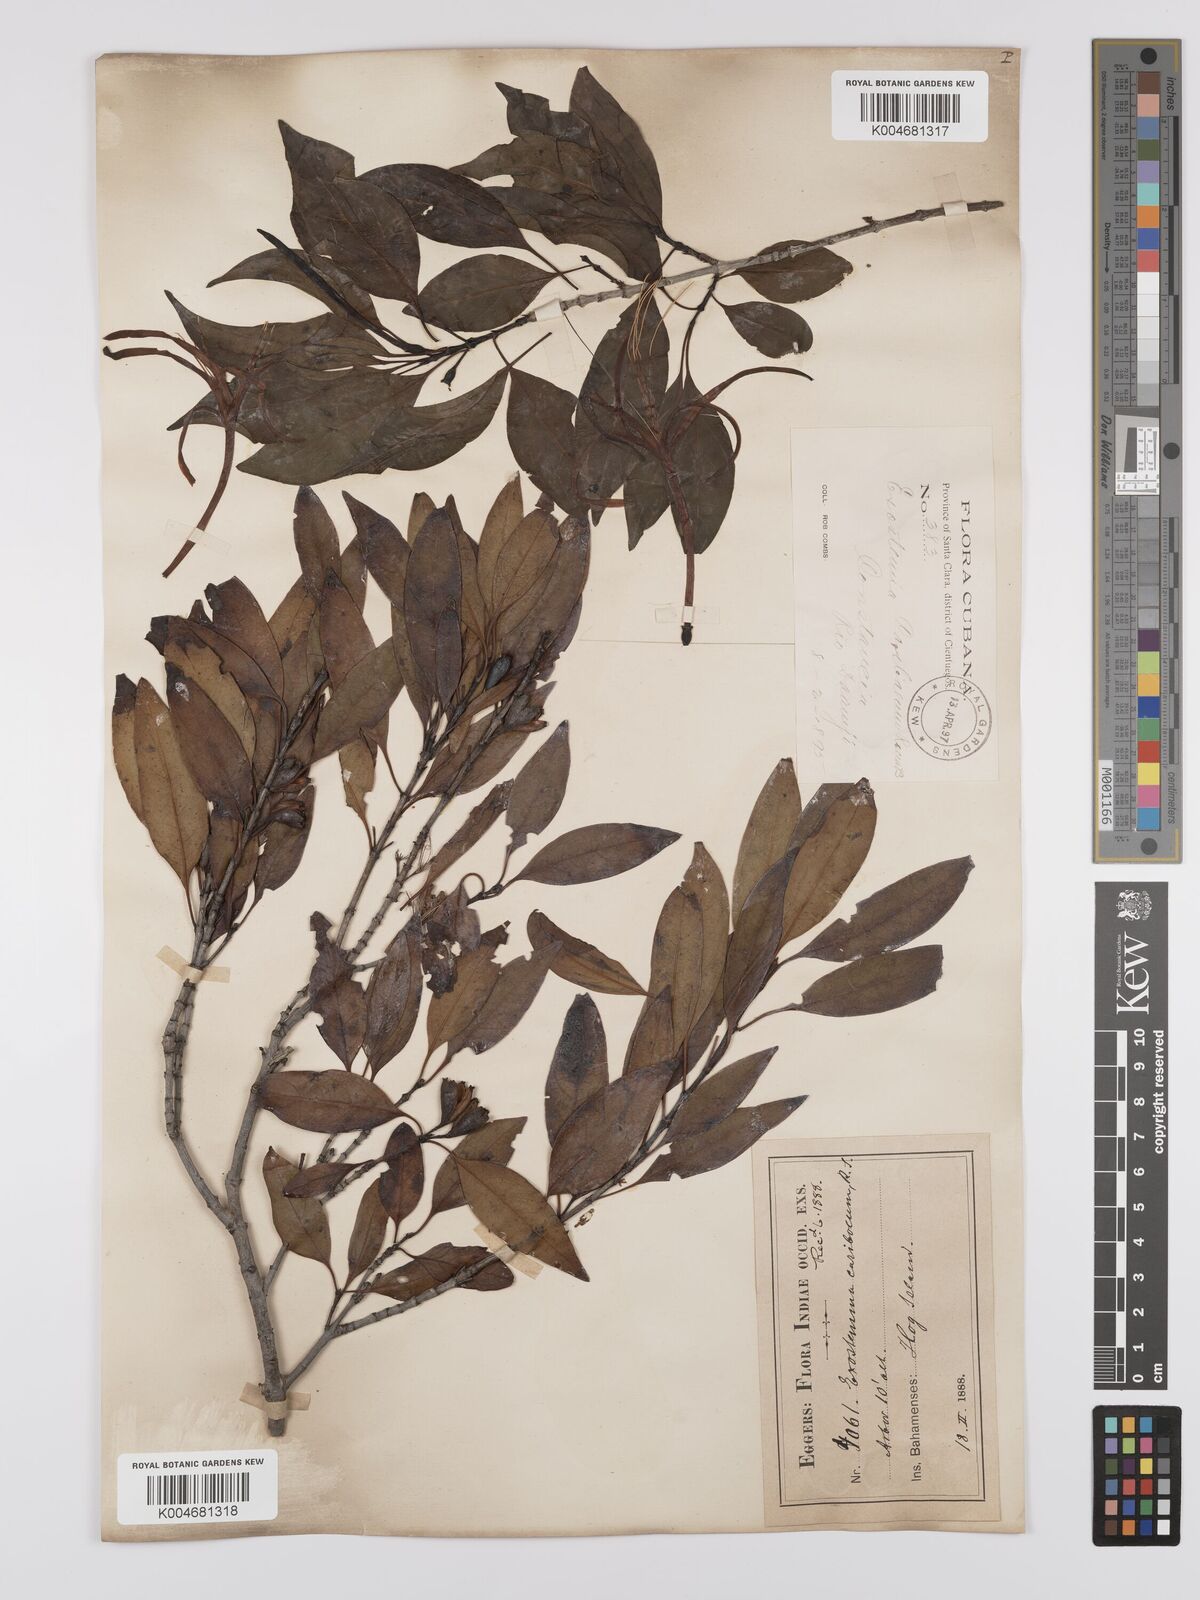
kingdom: Plantae
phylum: Tracheophyta
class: Magnoliopsida
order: Gentianales
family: Rubiaceae
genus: Exostema
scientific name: Exostema caribaeum
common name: Princewood
